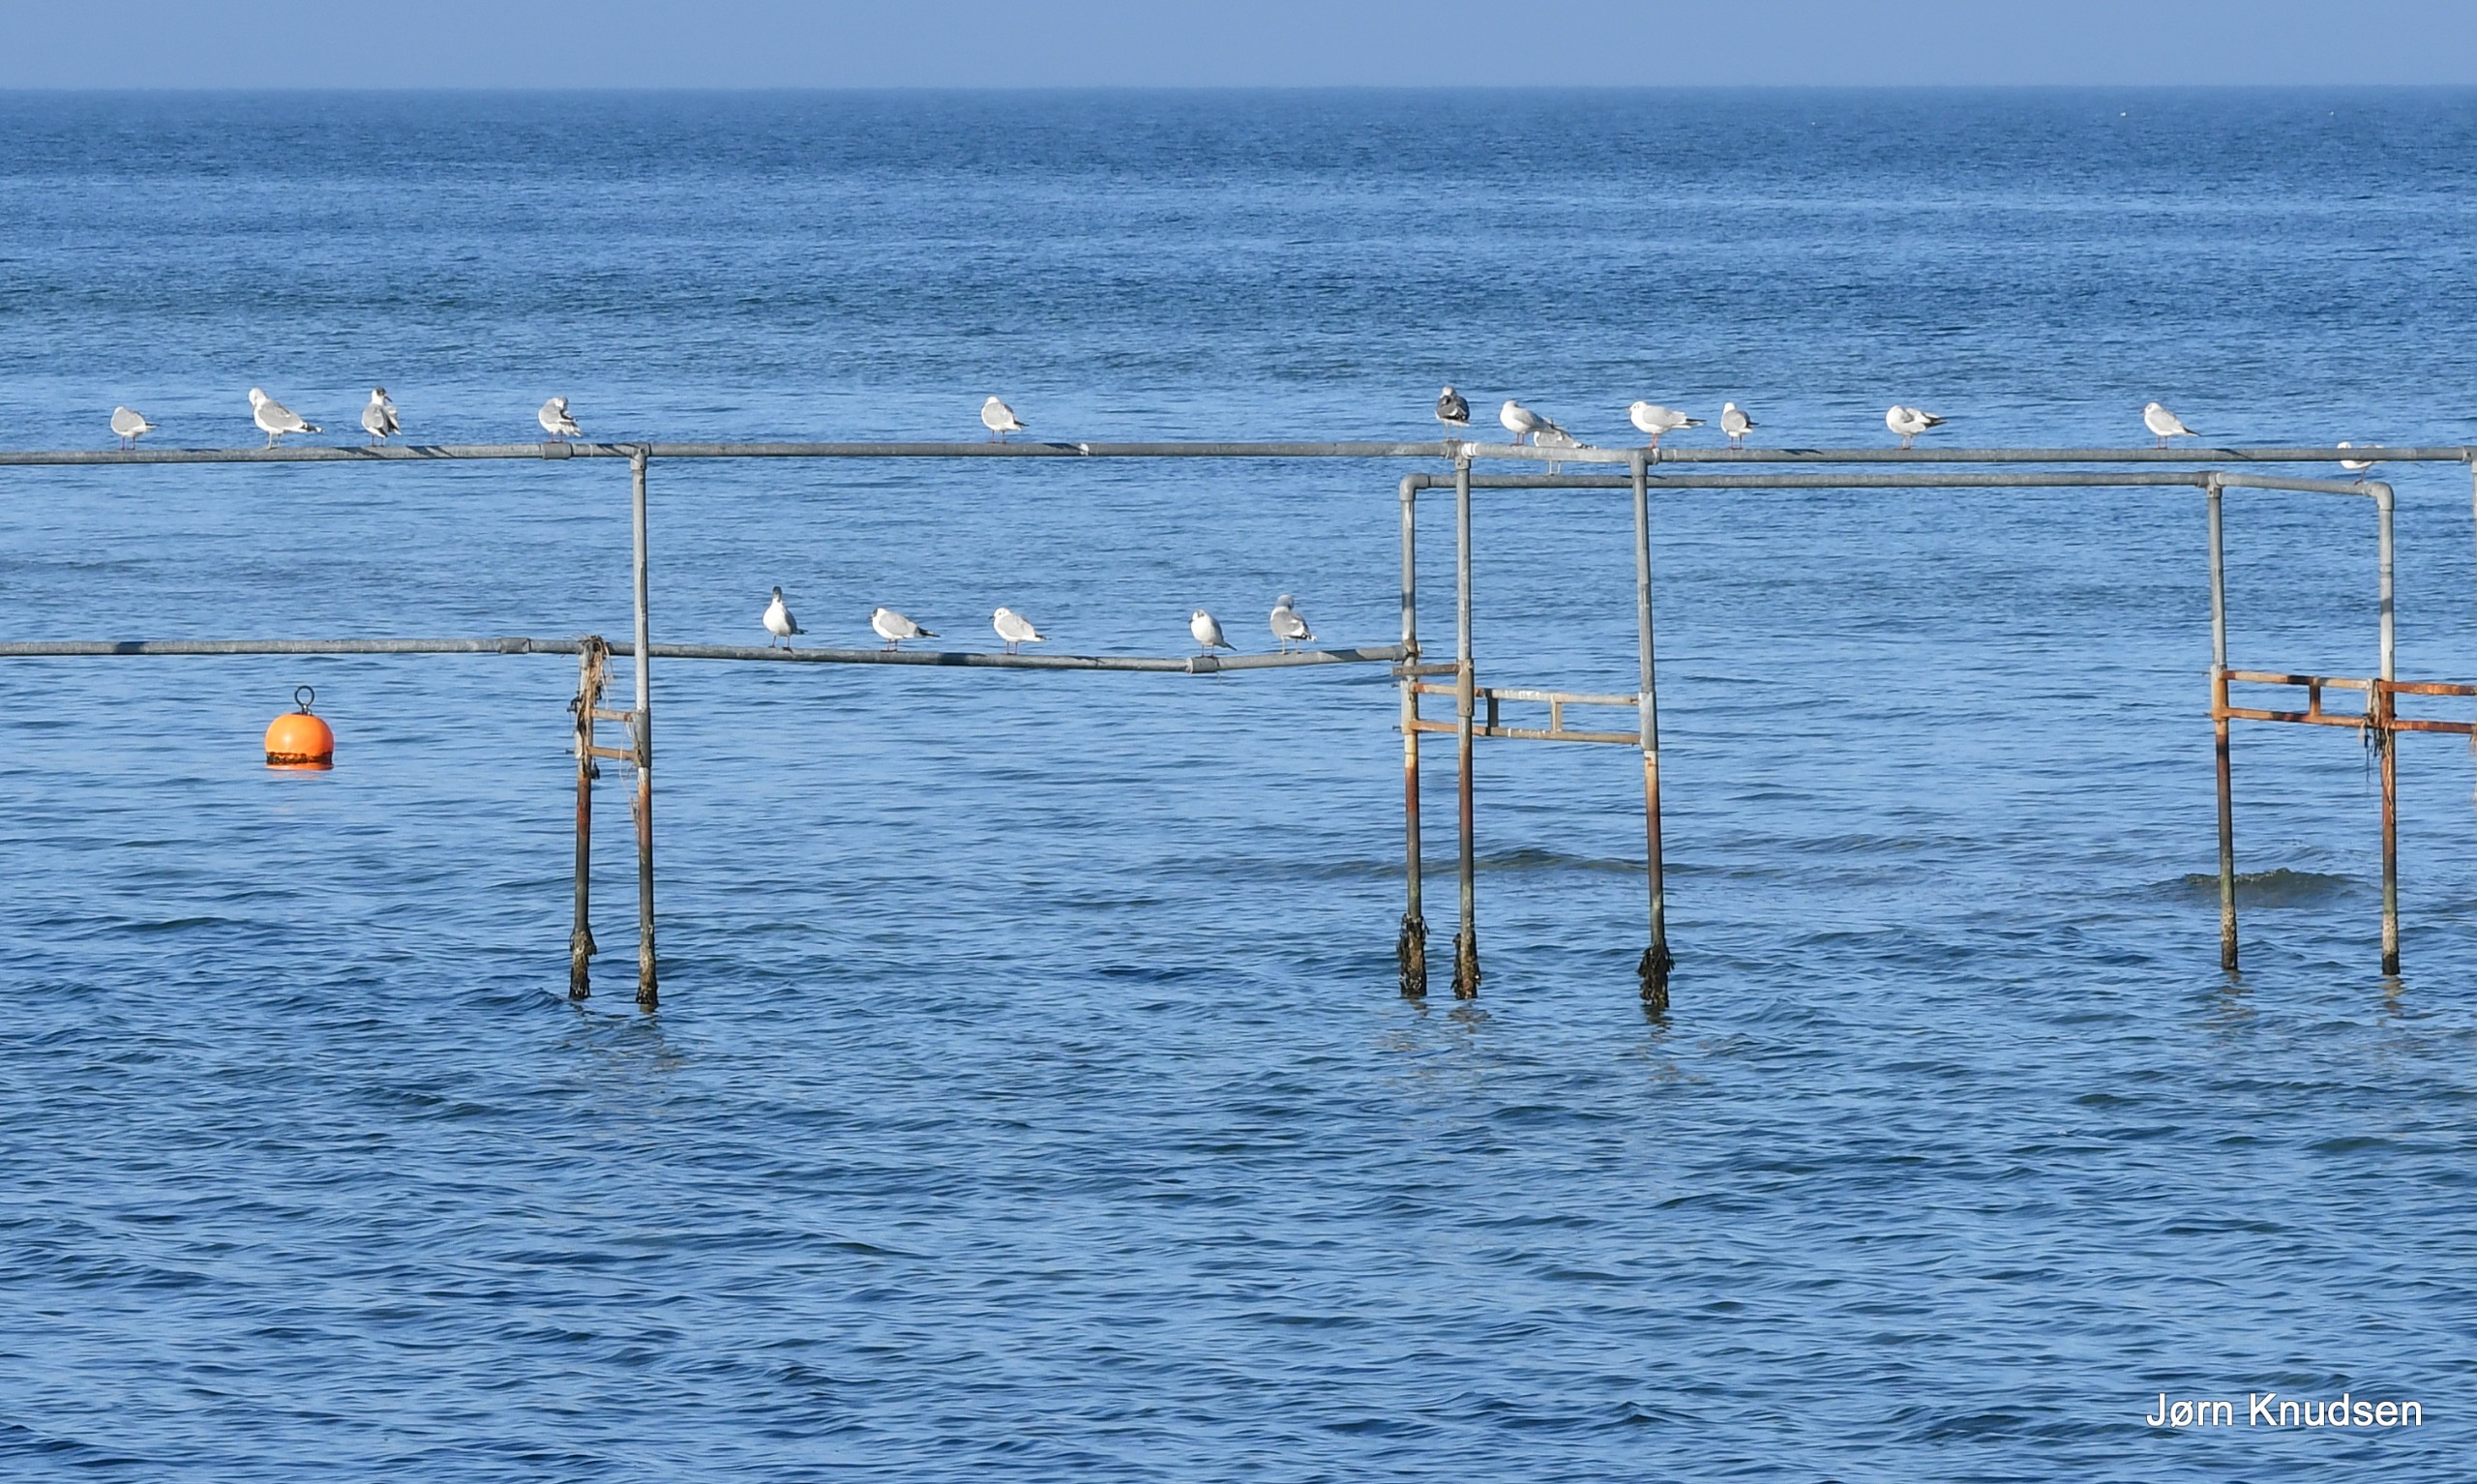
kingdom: Animalia
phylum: Chordata
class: Aves
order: Charadriiformes
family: Laridae
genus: Chroicocephalus
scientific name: Chroicocephalus ridibundus
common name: Hættemåge
